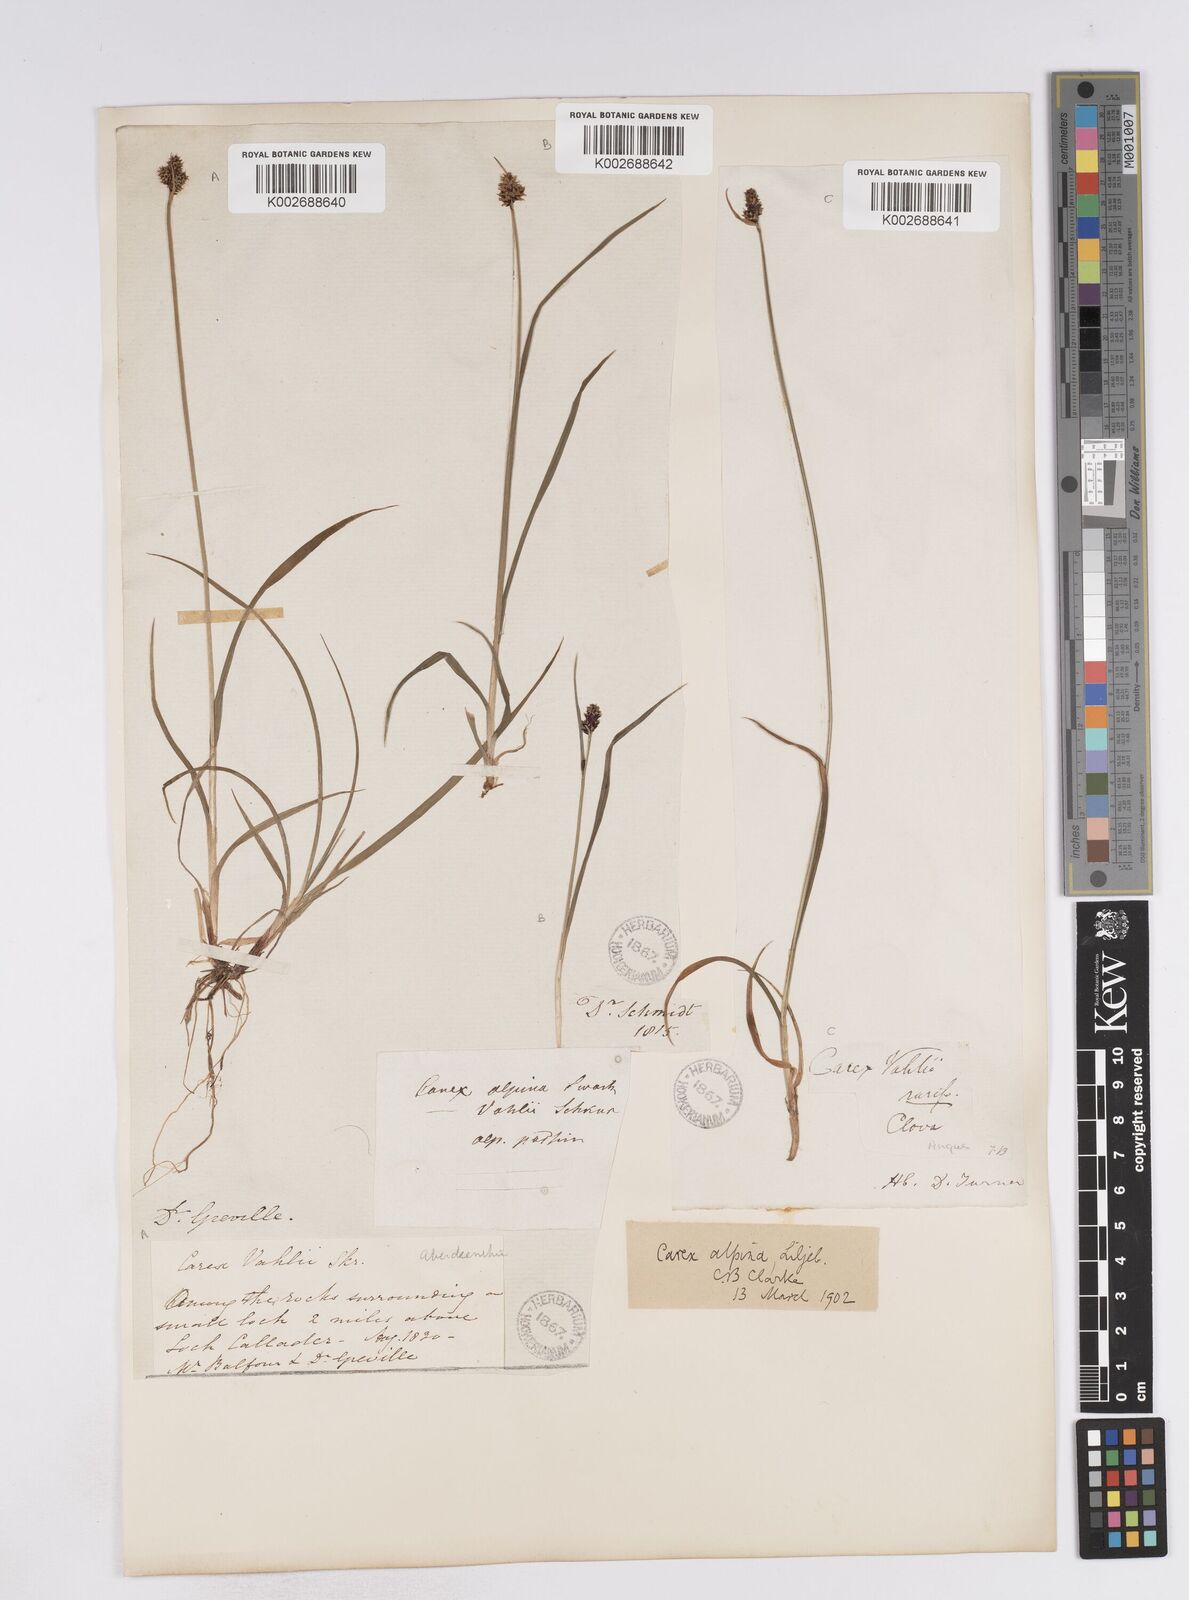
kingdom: Plantae
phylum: Tracheophyta
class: Liliopsida
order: Poales
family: Cyperaceae
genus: Carex
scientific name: Carex norvegica
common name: Close-headed alpine-sedge
